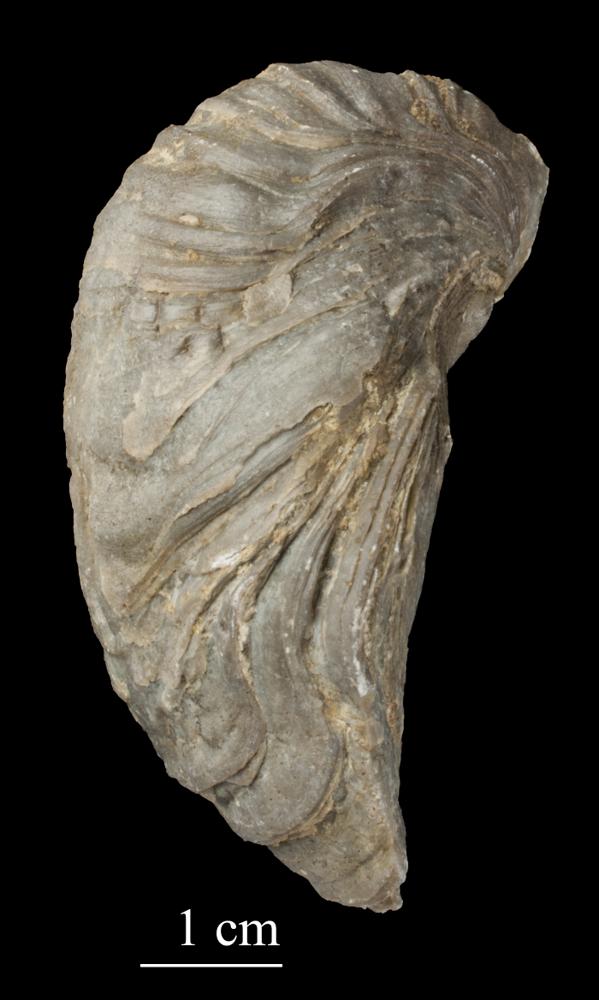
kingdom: Animalia
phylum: Mollusca
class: Bivalvia
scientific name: Bivalvia
